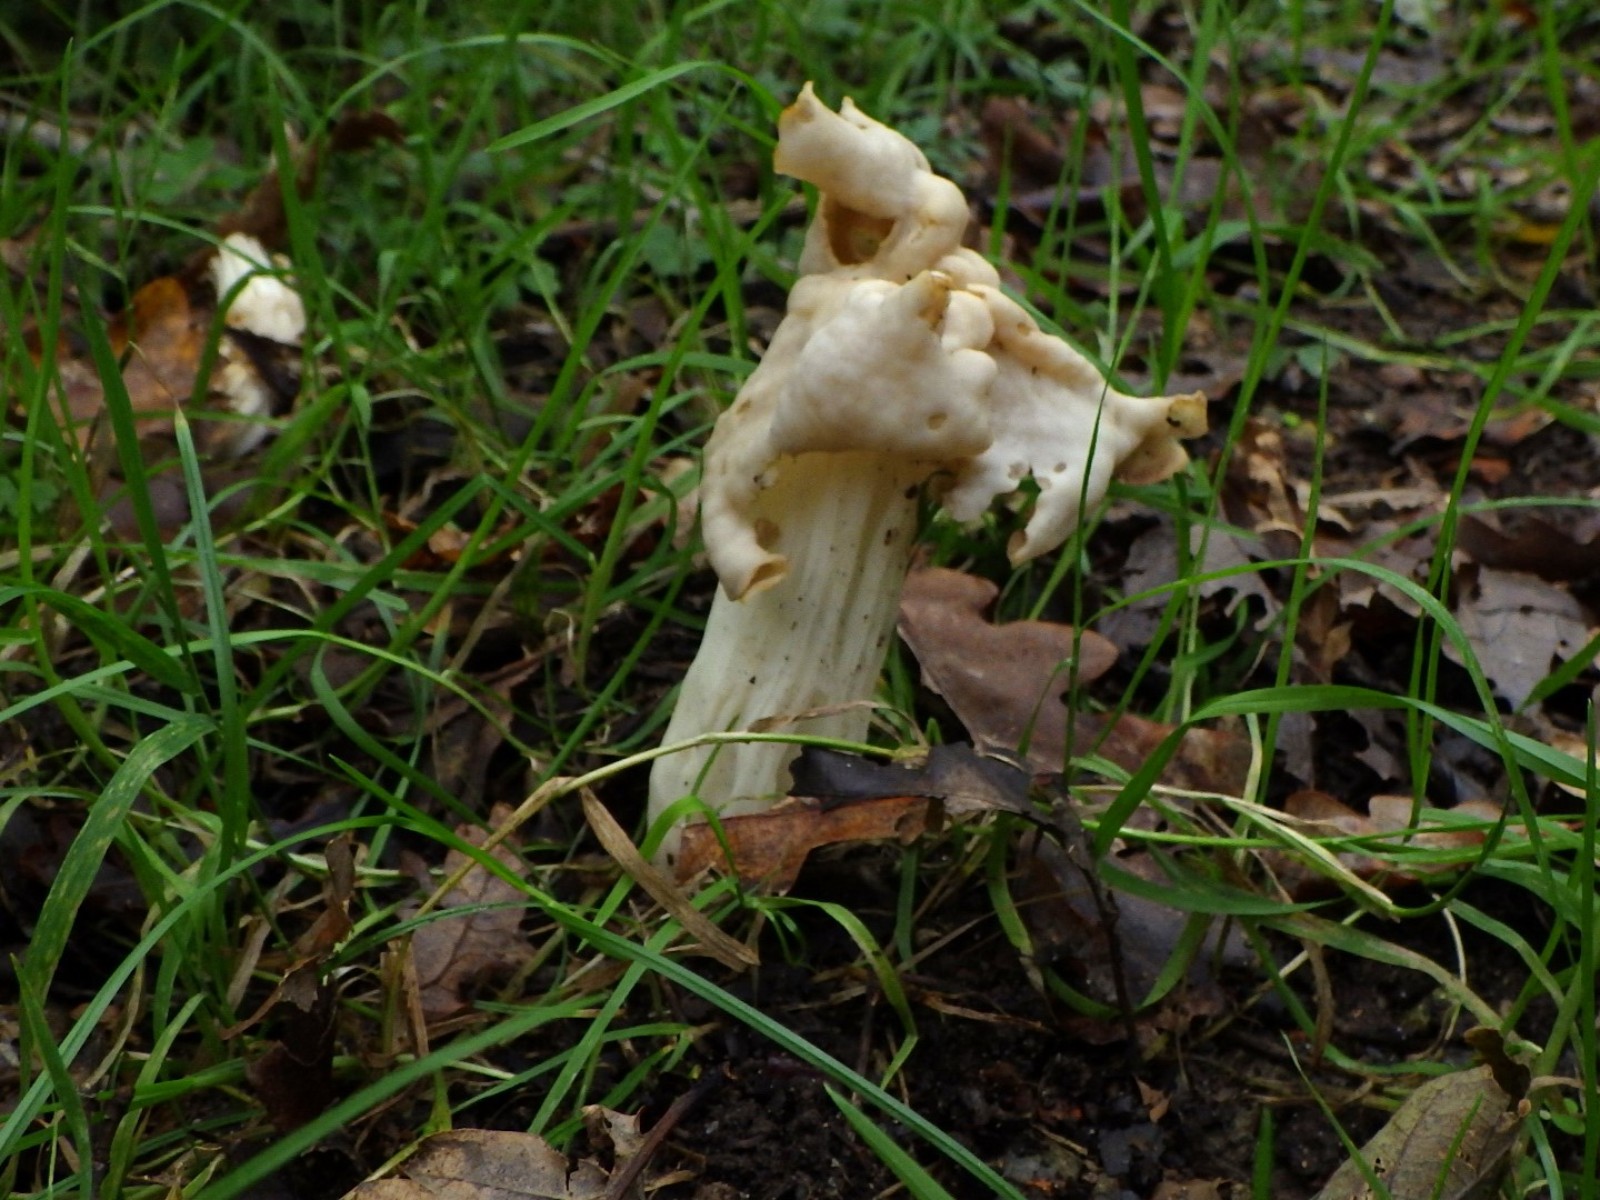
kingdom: Fungi
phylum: Ascomycota
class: Pezizomycetes
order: Pezizales
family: Helvellaceae
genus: Helvella
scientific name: Helvella crispa
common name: kruset foldhat
